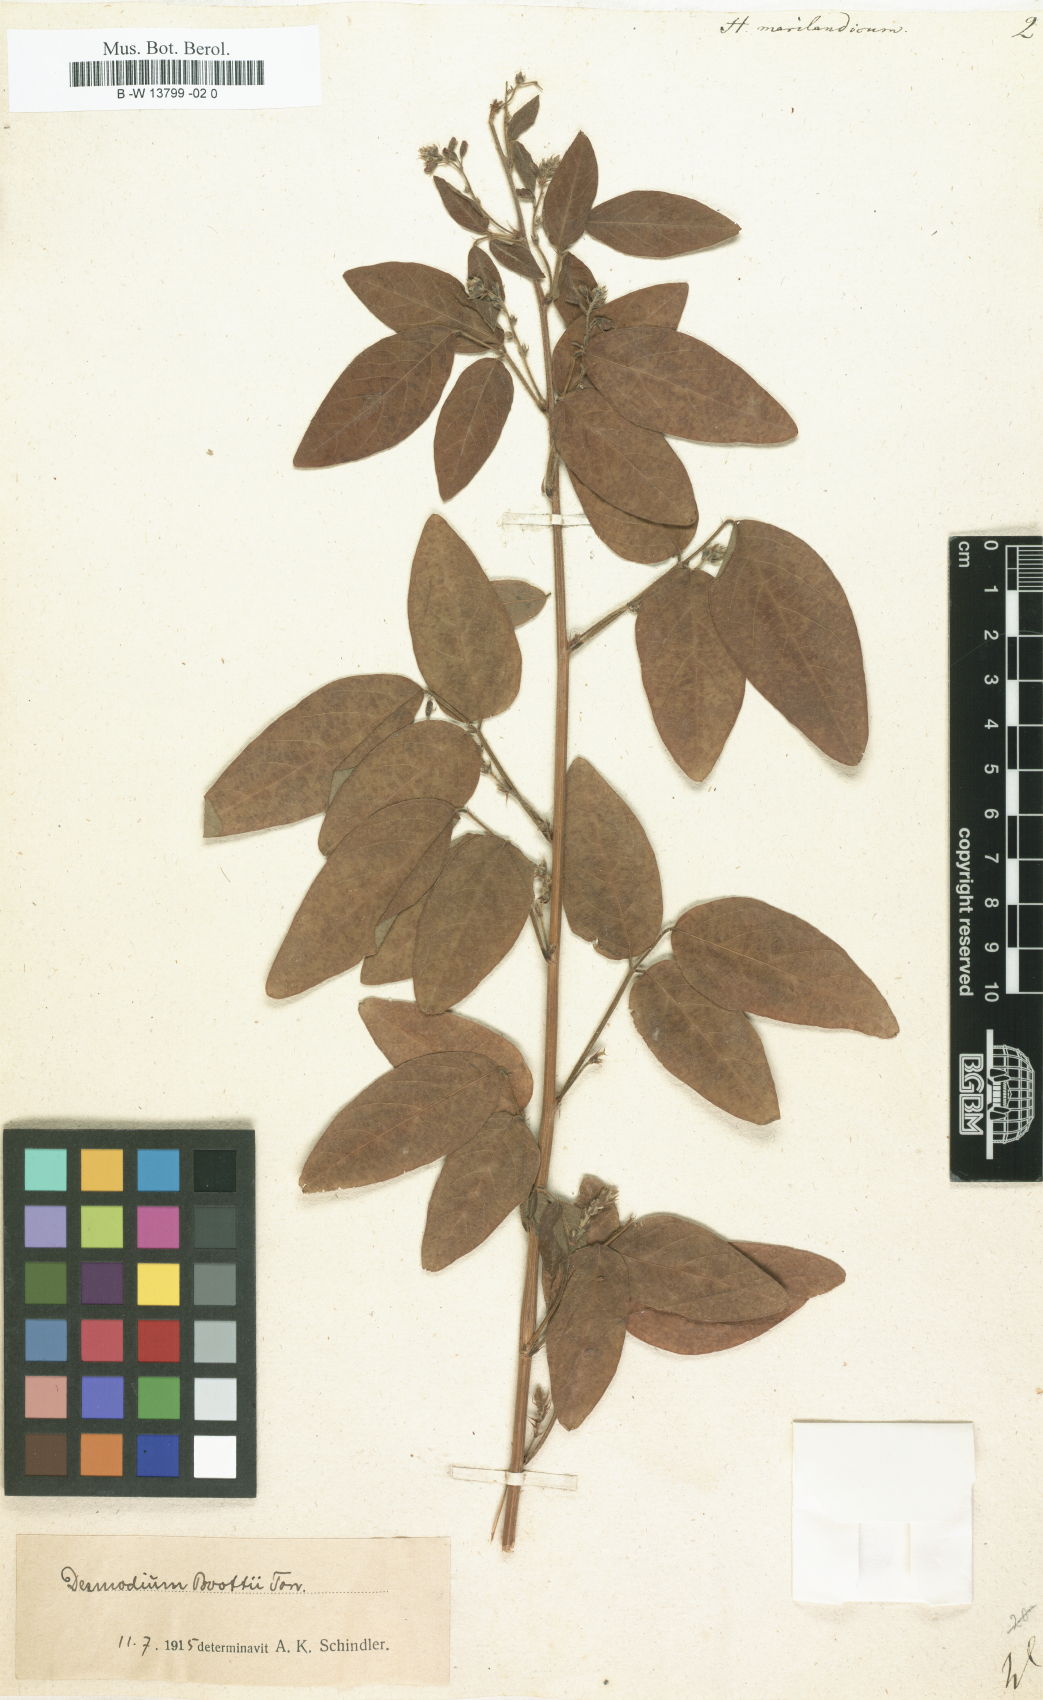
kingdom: Plantae
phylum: Tracheophyta
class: Magnoliopsida
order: Fabales
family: Fabaceae
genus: Desmodium
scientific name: Desmodium marilandicum
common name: Maryland tick-trefoil
